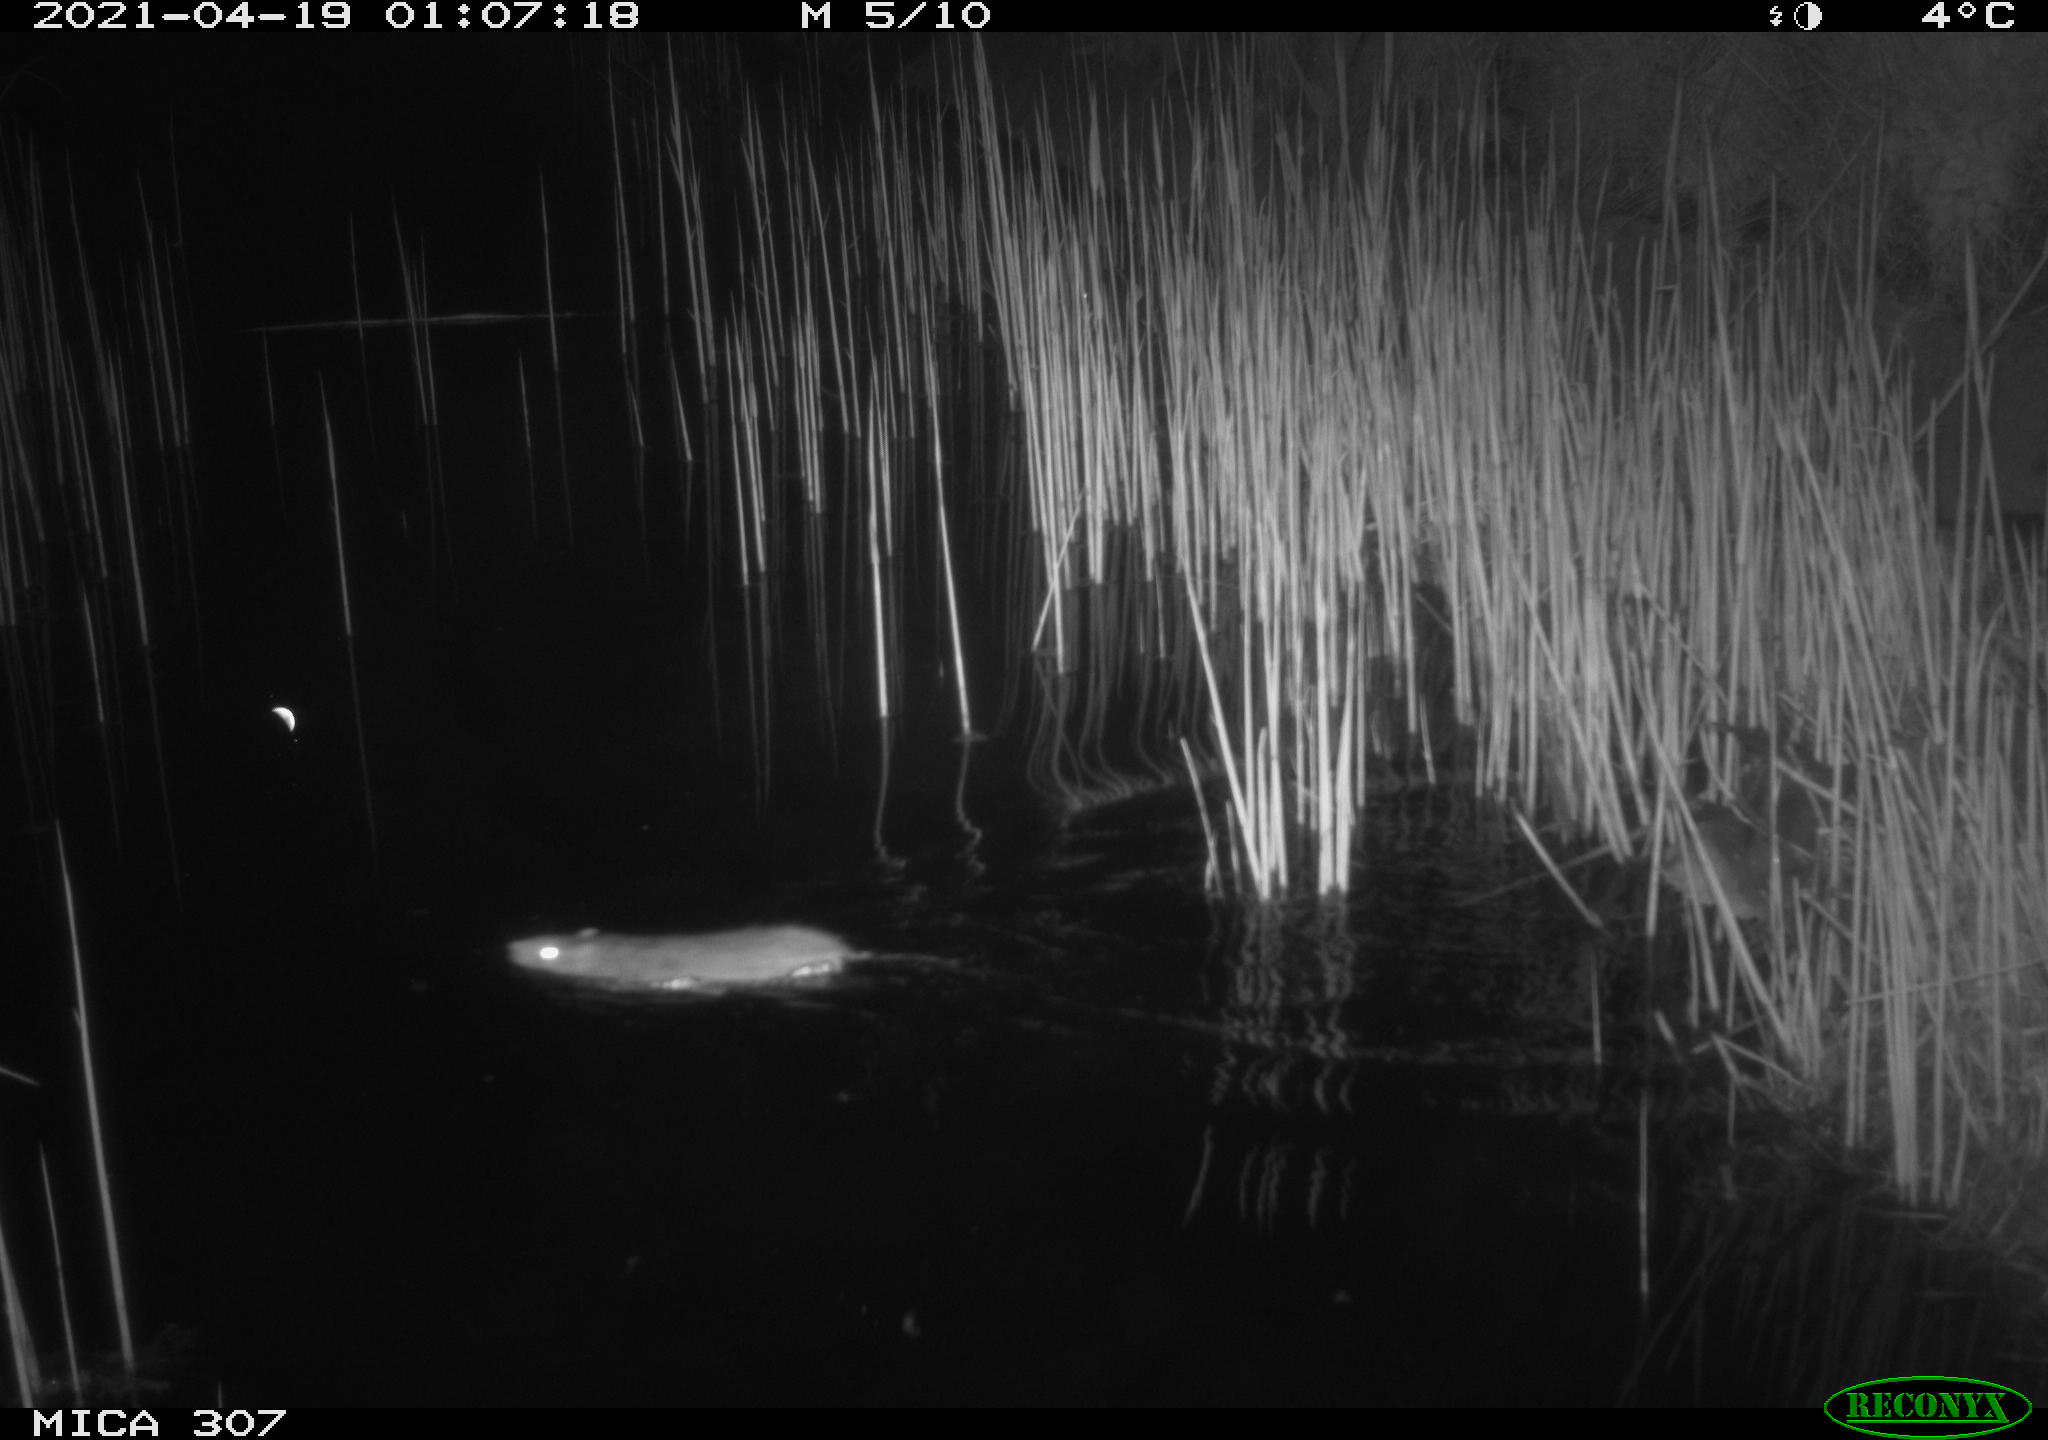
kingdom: Animalia
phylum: Chordata
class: Mammalia
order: Rodentia
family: Muridae
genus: Rattus
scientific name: Rattus norvegicus
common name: Brown rat
